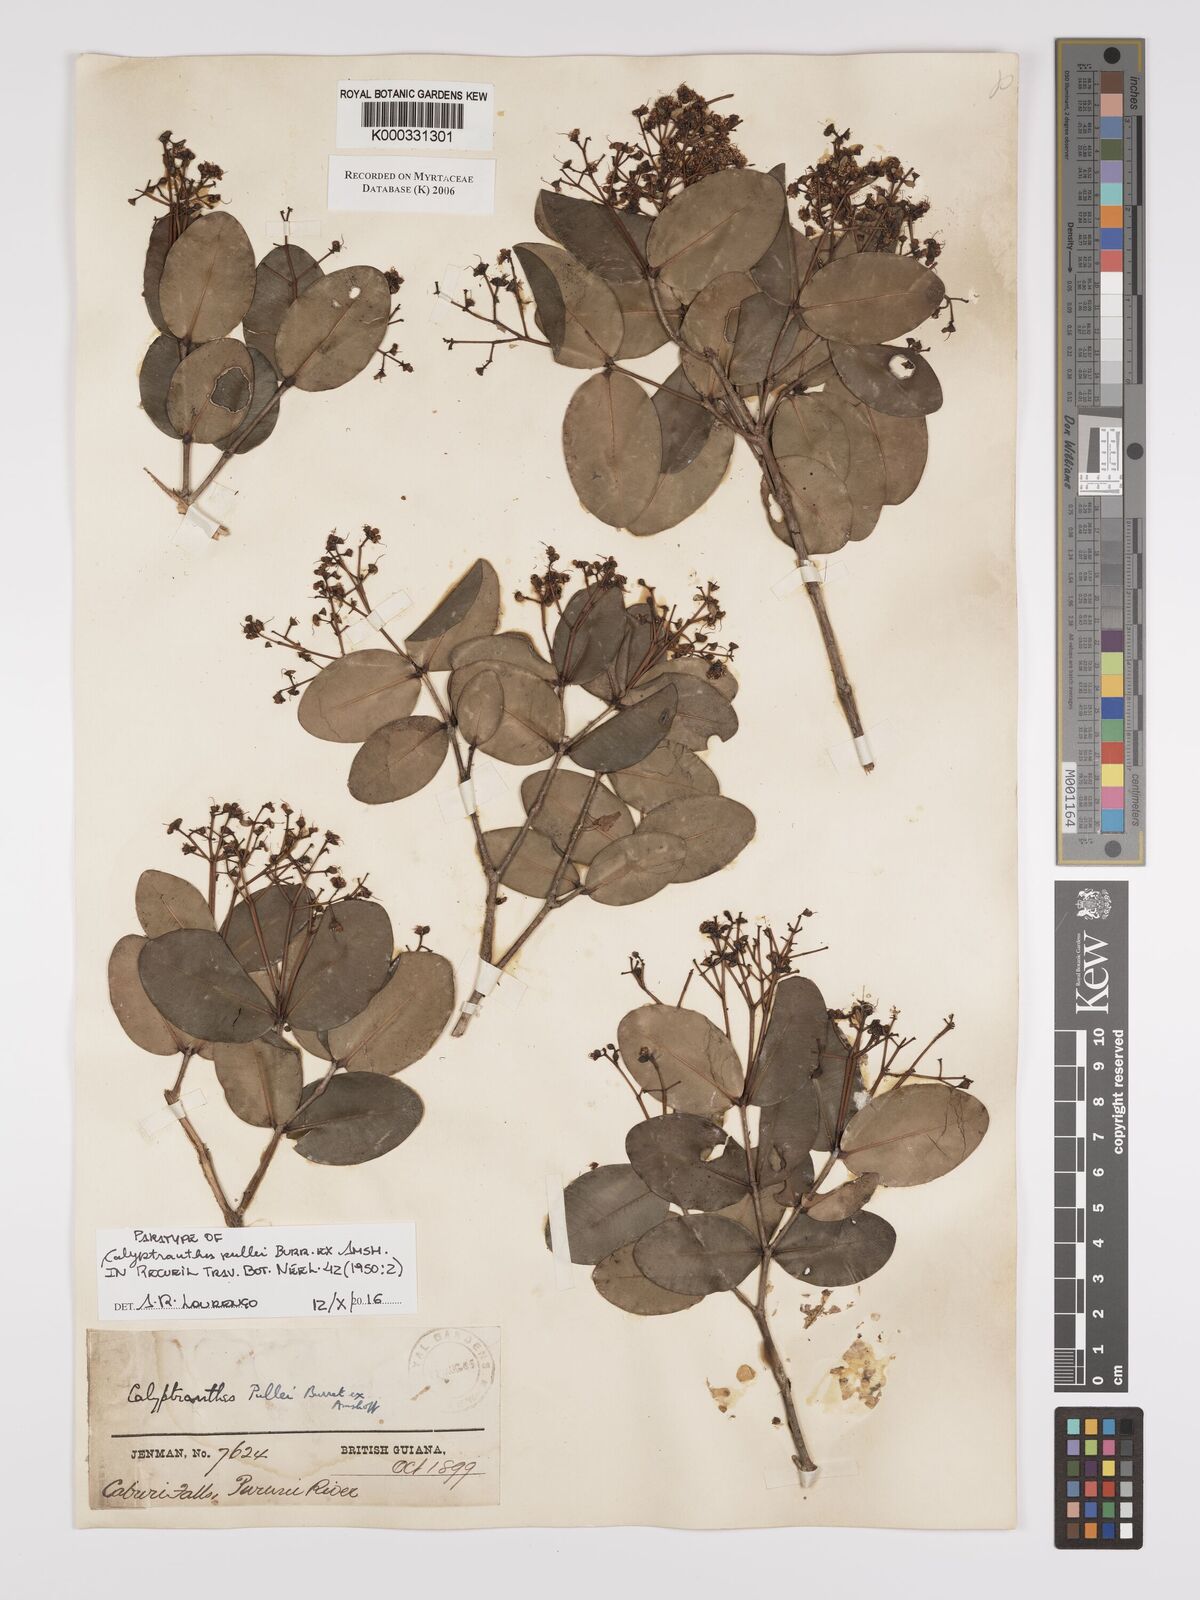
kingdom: Plantae
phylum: Tracheophyta
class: Magnoliopsida
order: Myrtales
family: Myrtaceae
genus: Myrcia
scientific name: Myrcia pullei
